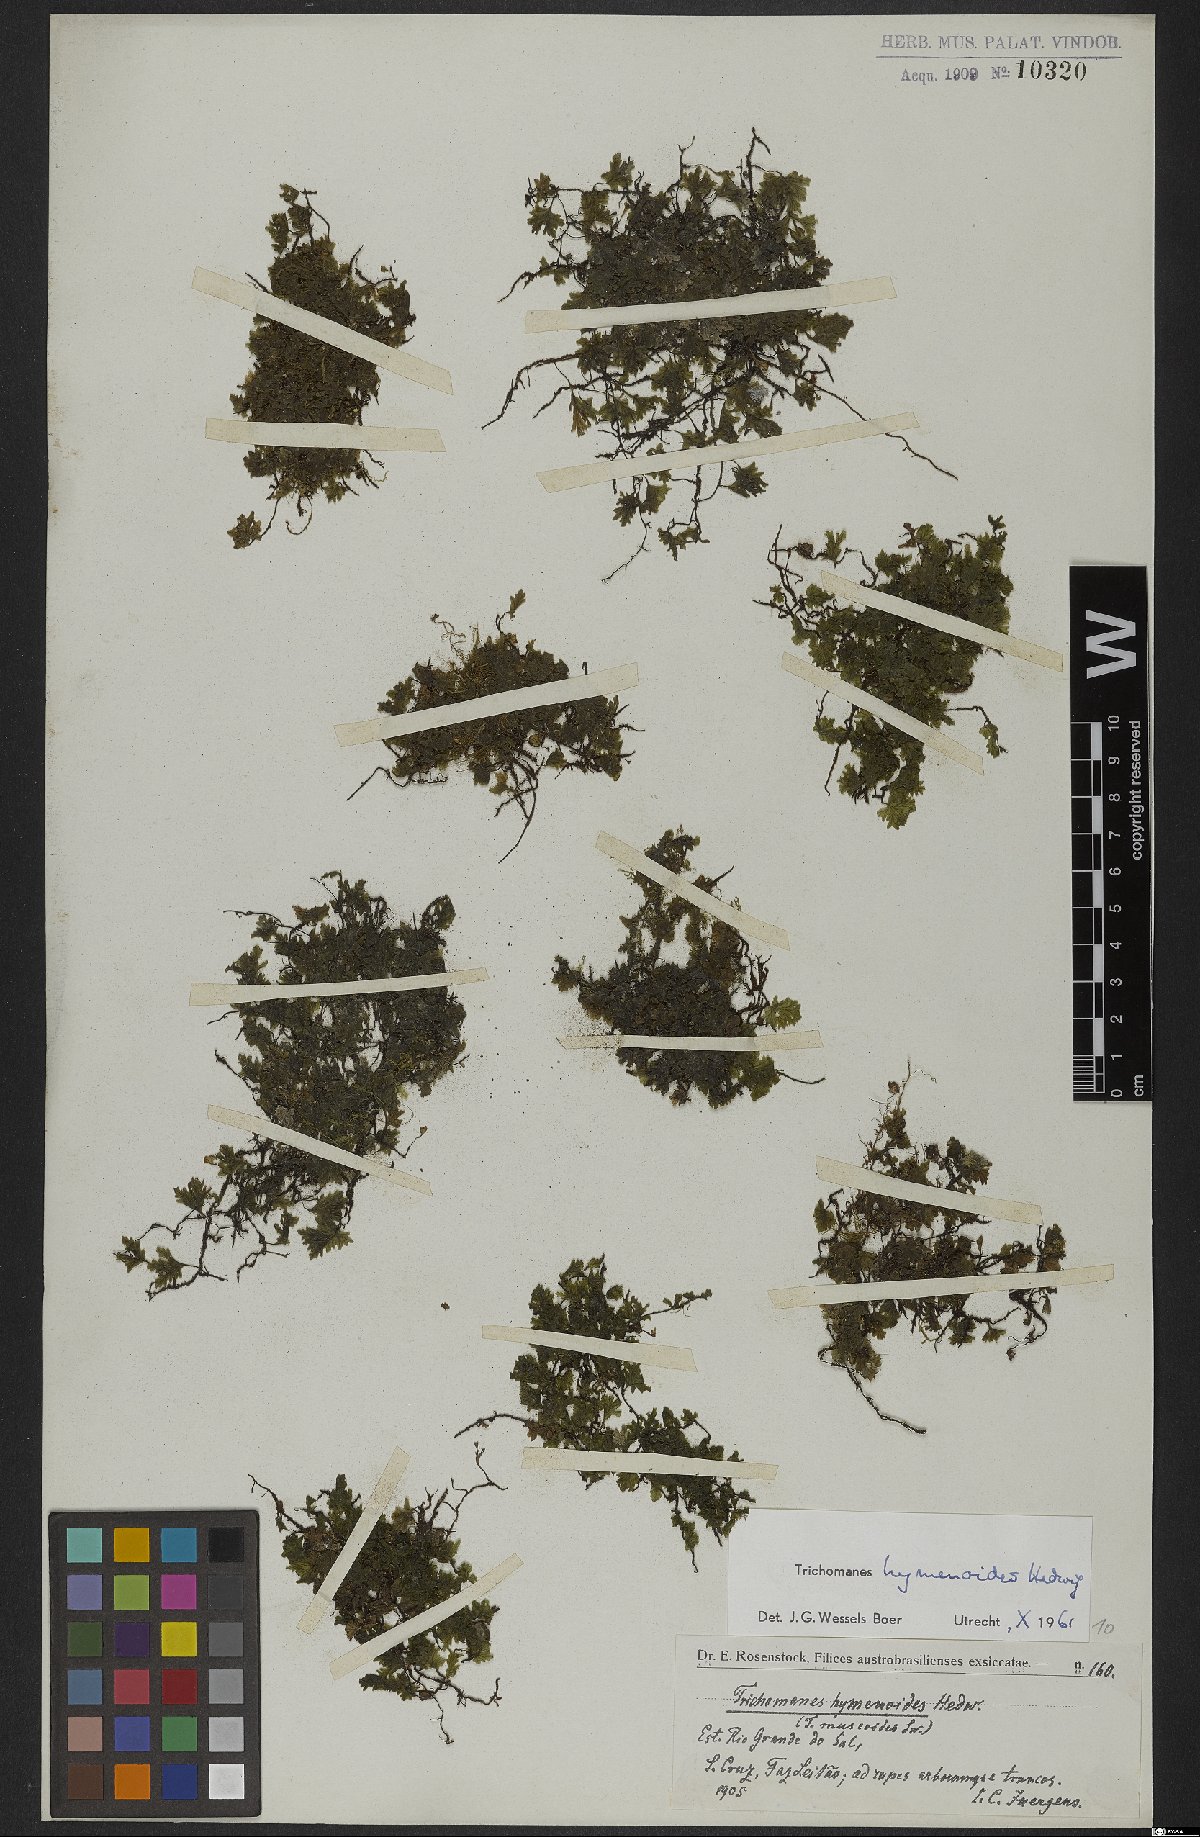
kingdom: Plantae
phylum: Tracheophyta
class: Polypodiopsida
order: Hymenophyllales
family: Hymenophyllaceae
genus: Didymoglossum
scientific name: Didymoglossum hymenoides
